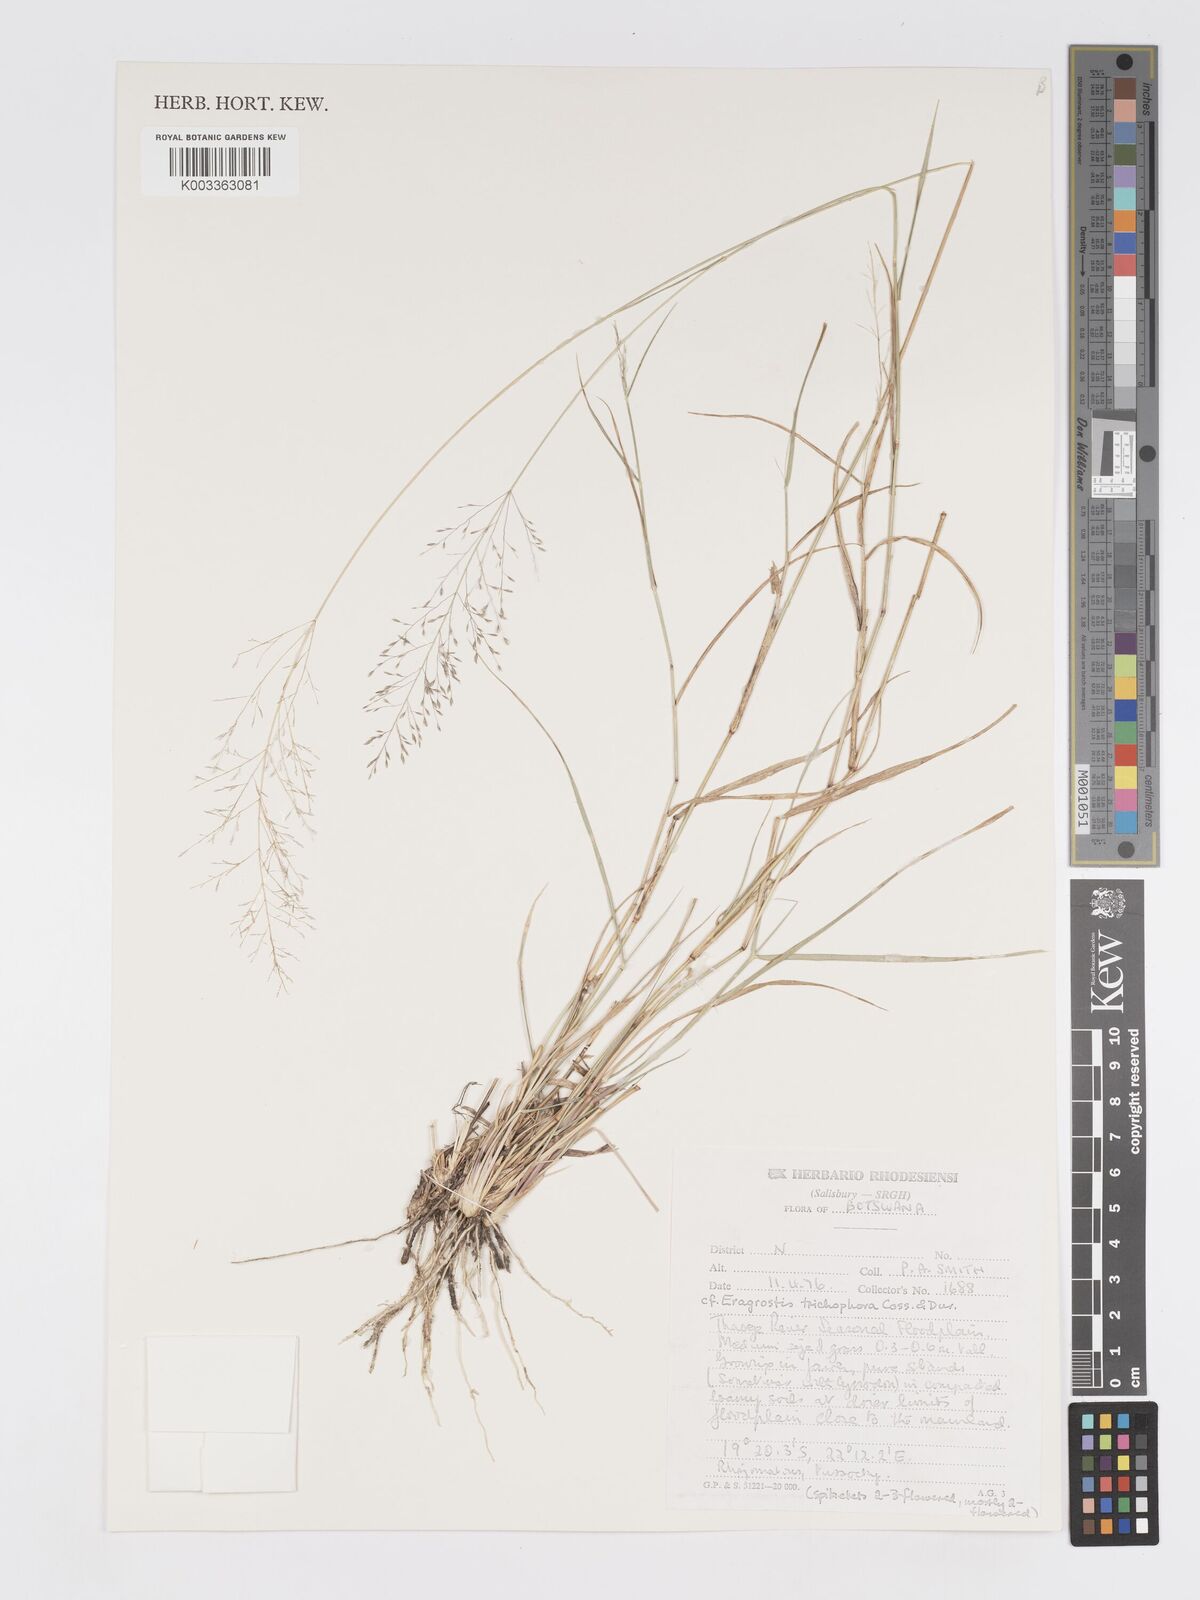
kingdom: Plantae
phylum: Tracheophyta
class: Liliopsida
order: Poales
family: Poaceae
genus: Eragrostis
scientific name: Eragrostis cylindriflora
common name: Cylinderflower lovegrass
